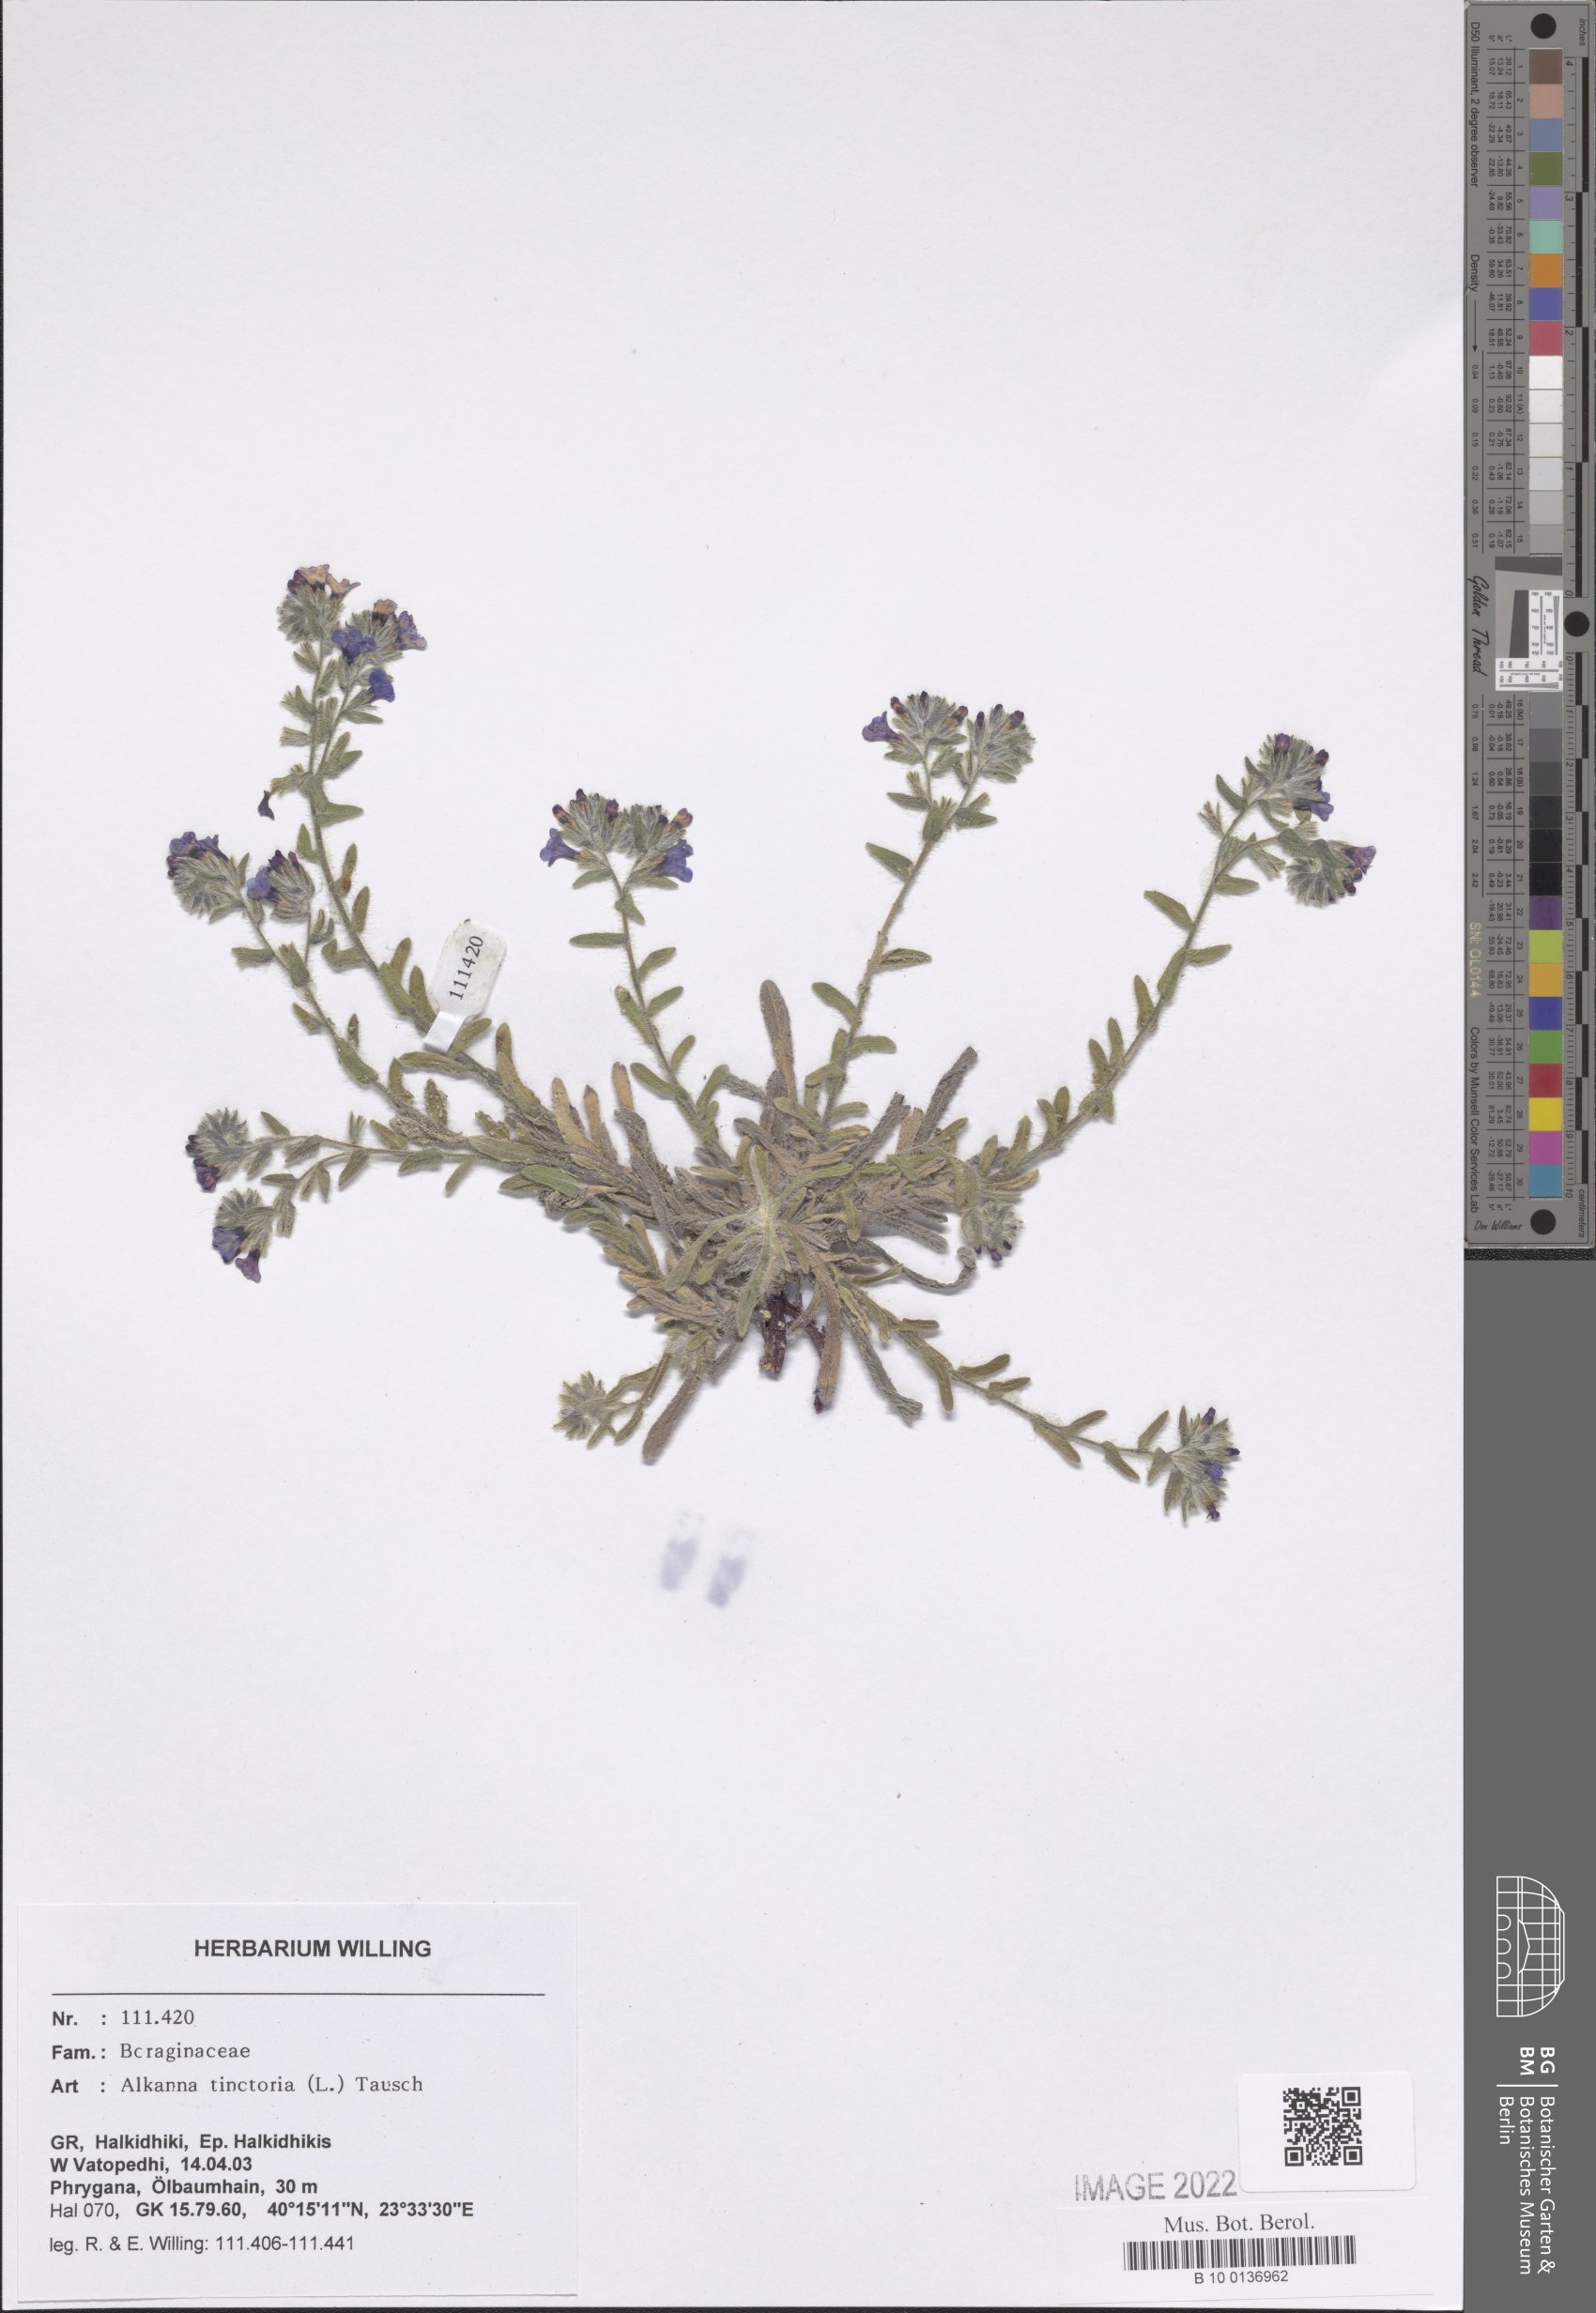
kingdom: Plantae
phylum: Tracheophyta
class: Magnoliopsida
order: Boraginales
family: Boraginaceae
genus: Alkanna
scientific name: Alkanna tinctoria
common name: Dyer's-alkanet
